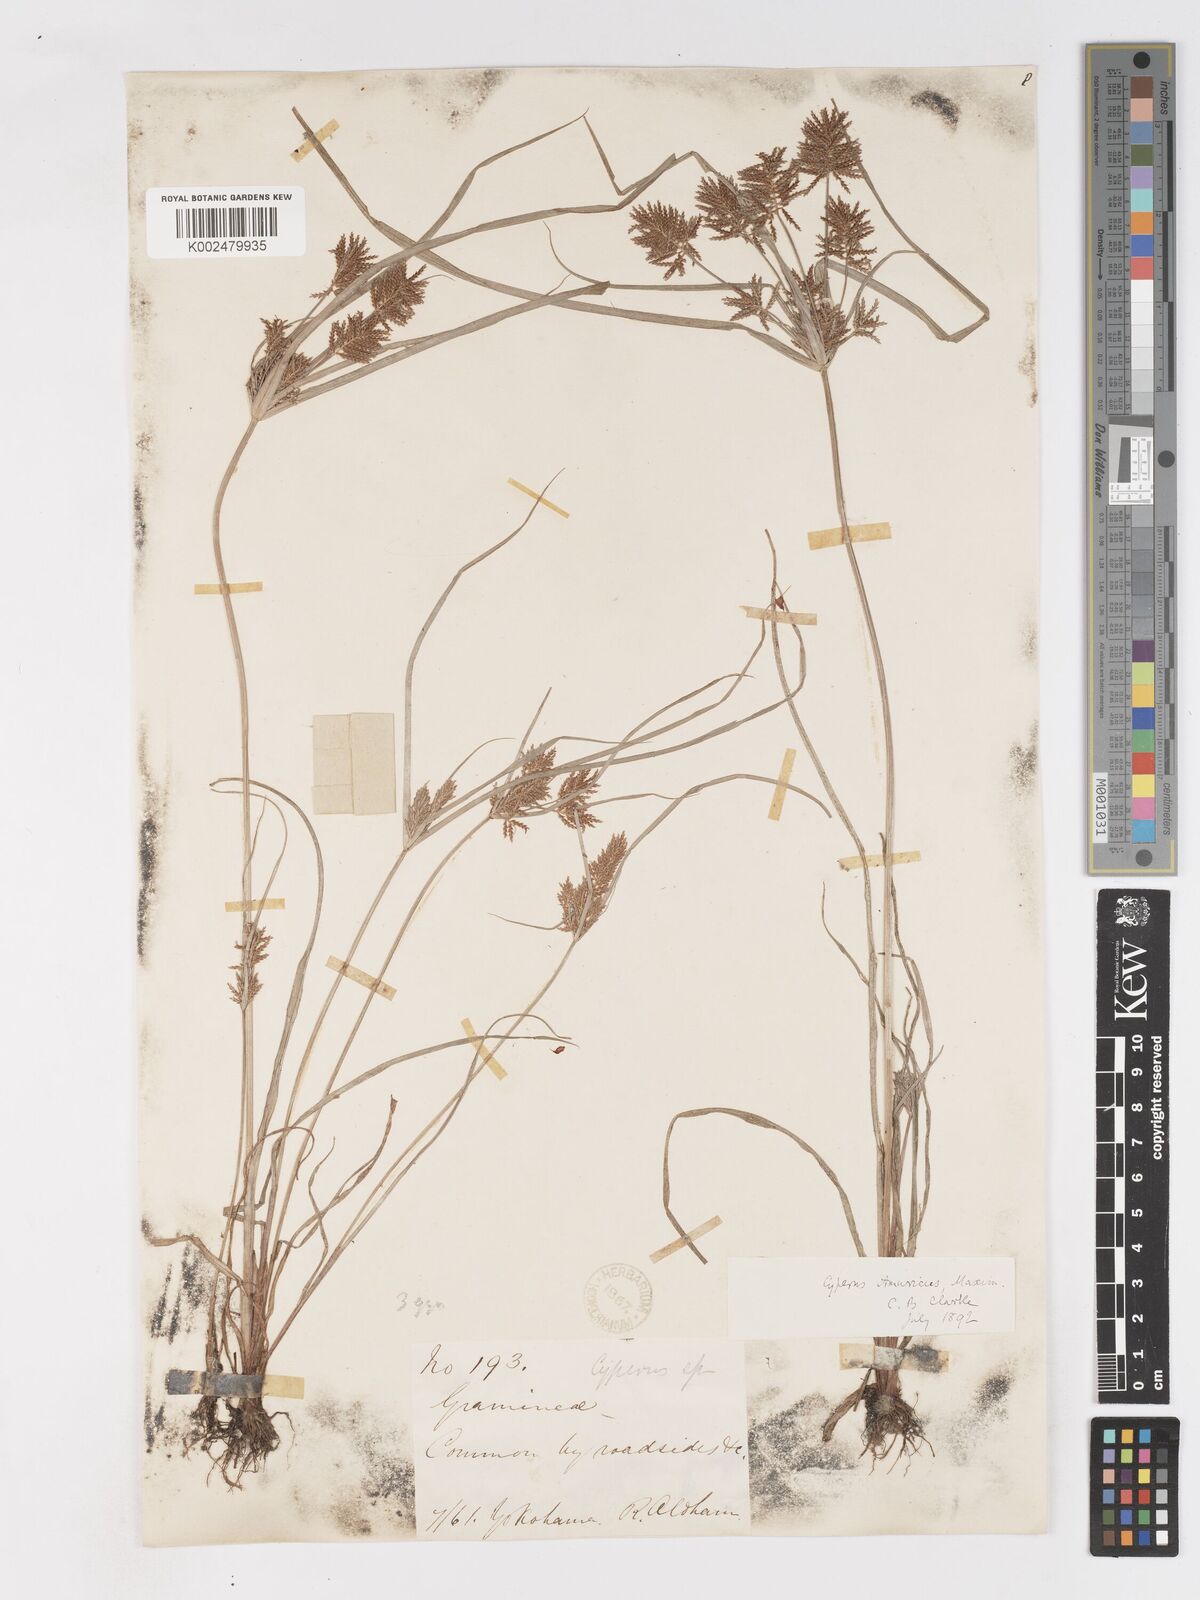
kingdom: Plantae
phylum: Tracheophyta
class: Liliopsida
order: Poales
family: Cyperaceae
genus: Cyperus
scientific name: Cyperus amuricus
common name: Asian flatsedge
